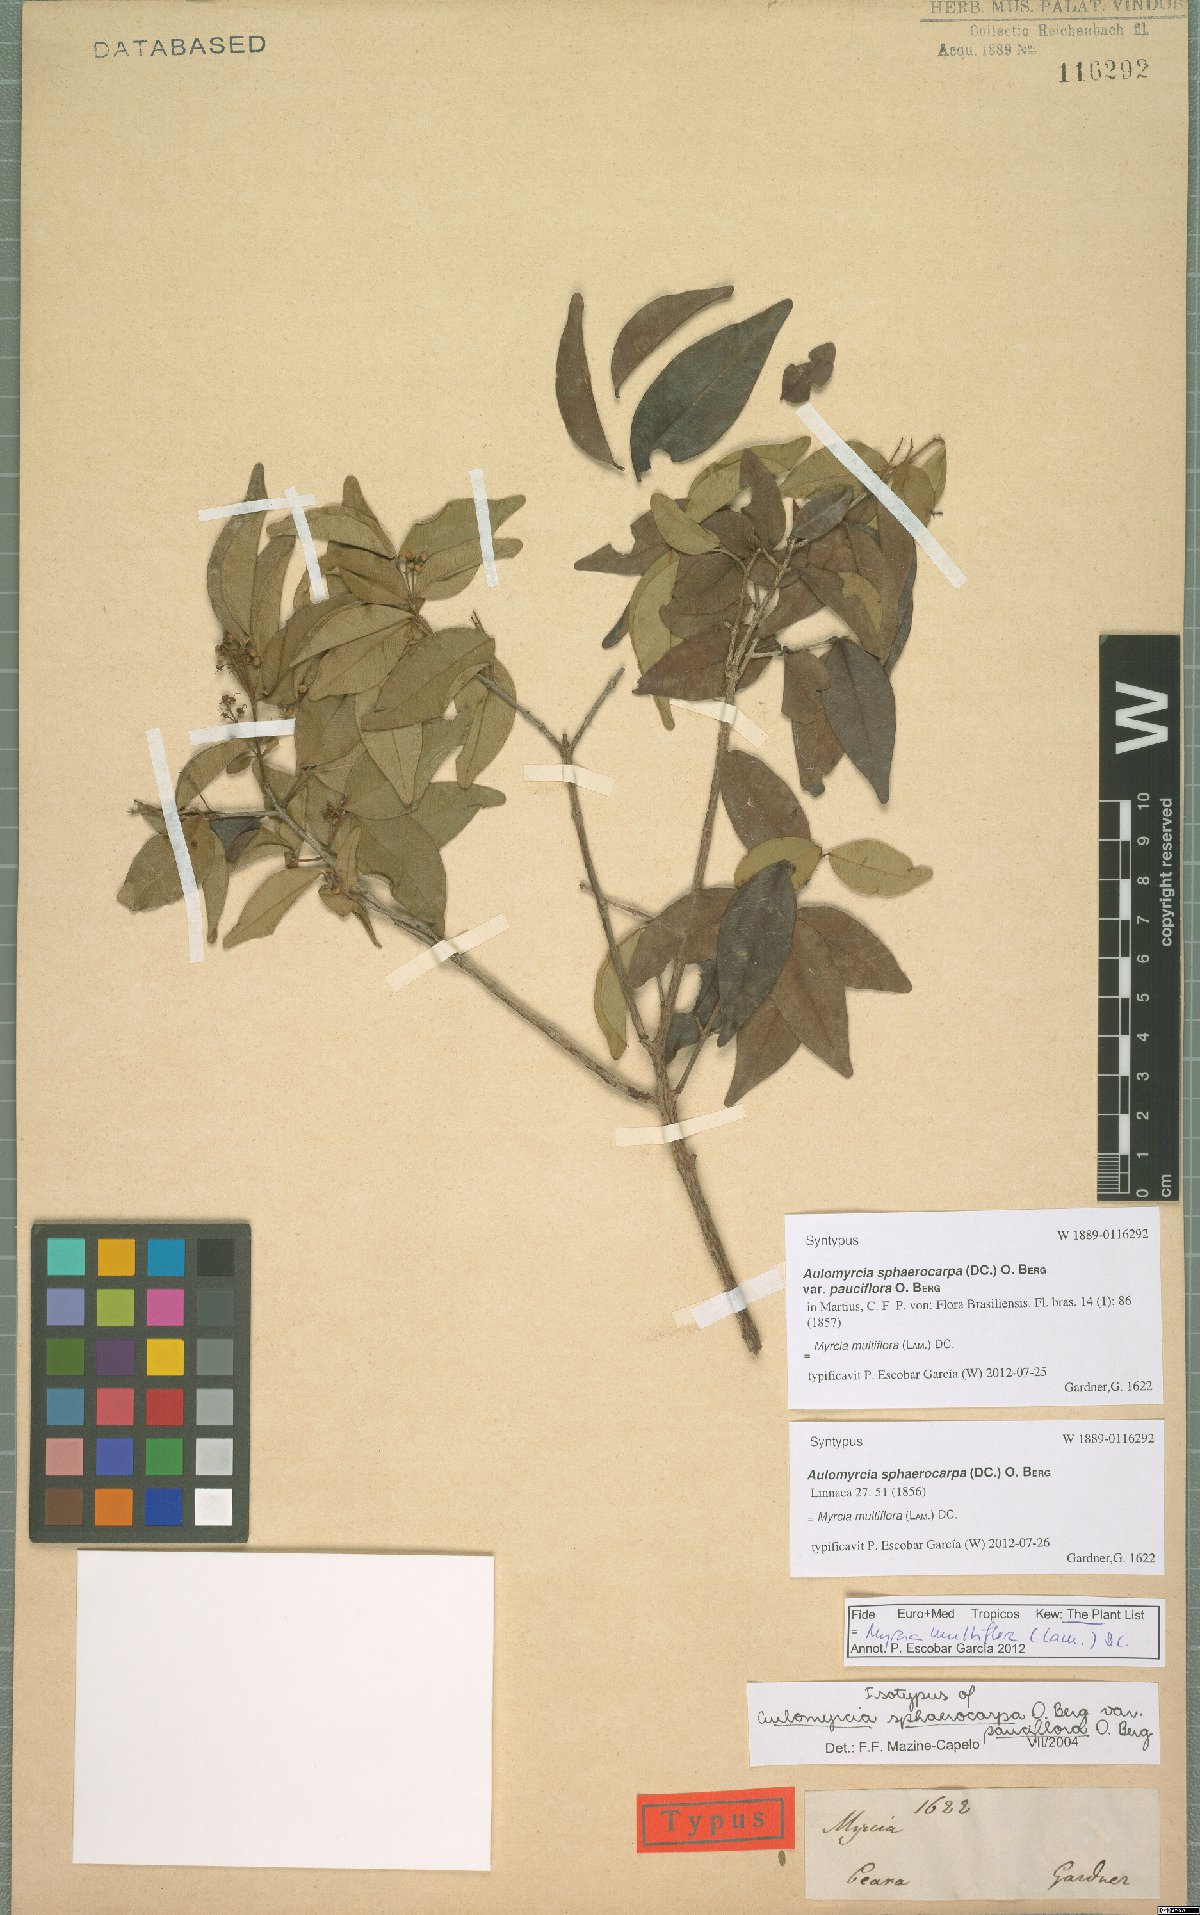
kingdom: Plantae
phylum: Tracheophyta
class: Magnoliopsida
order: Myrtales
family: Myrtaceae
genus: Myrcia
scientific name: Myrcia multiflora
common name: Pedra hume
